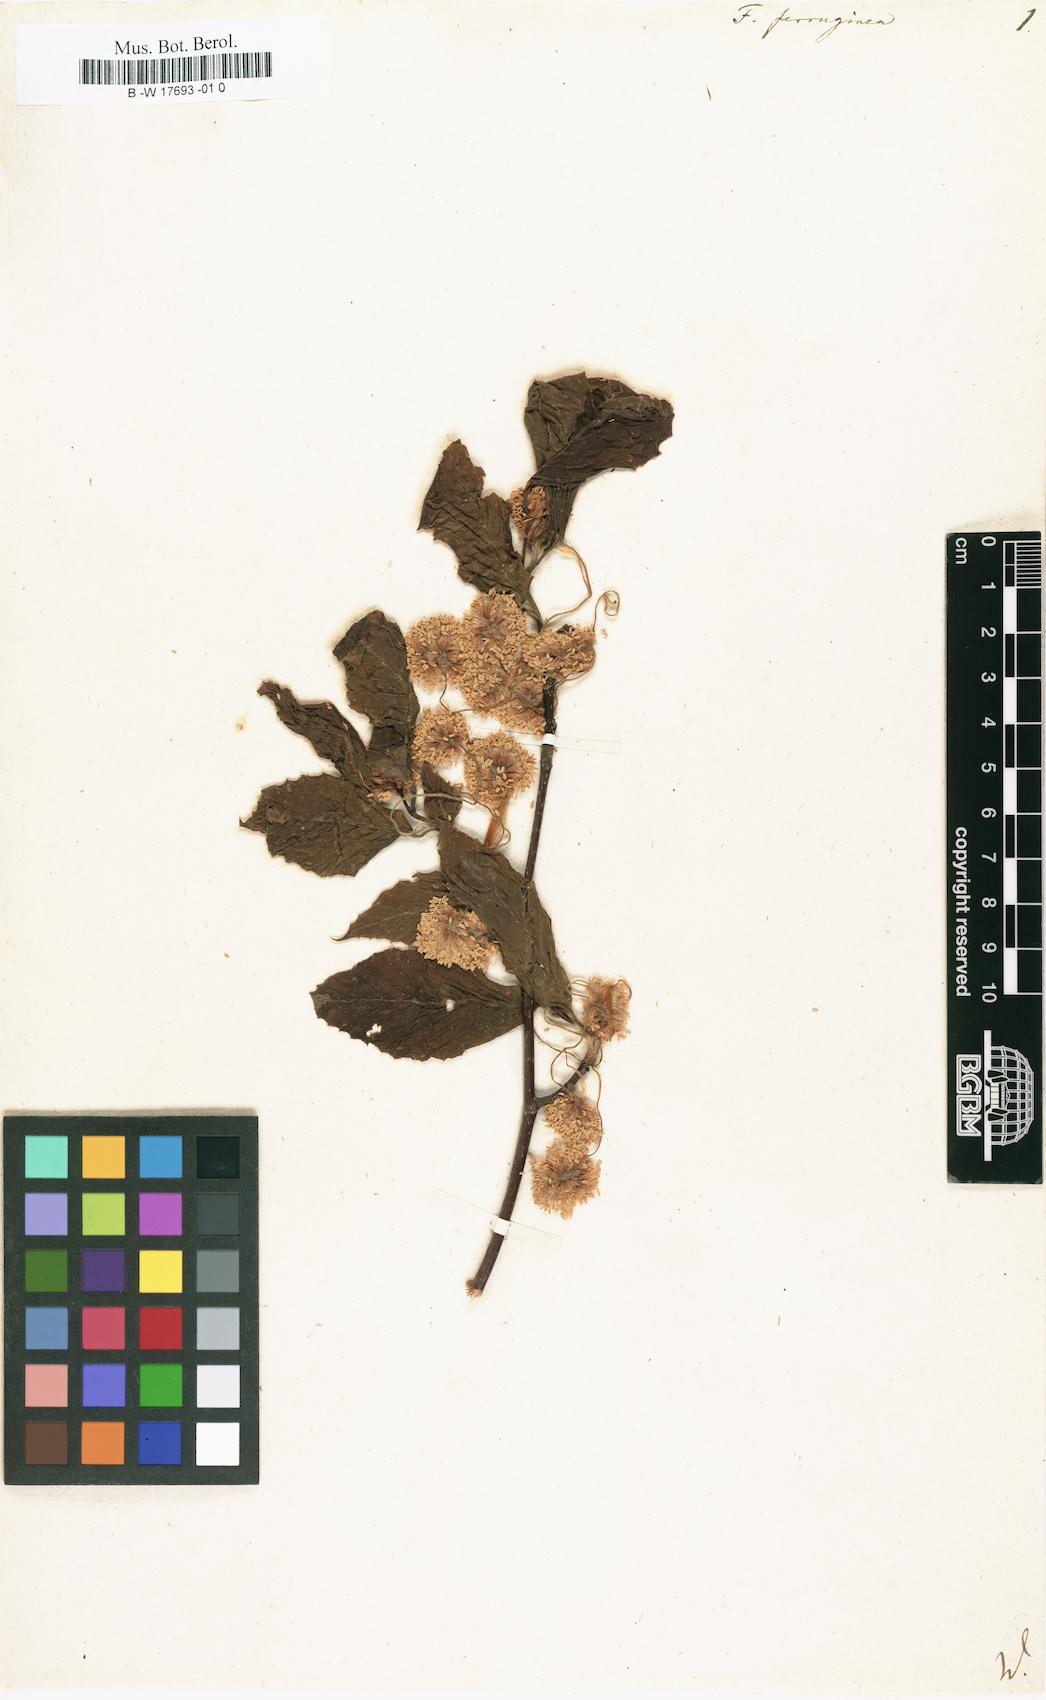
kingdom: Plantae
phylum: Tracheophyta
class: Magnoliopsida
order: Fagales
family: Fagaceae
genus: Fagus
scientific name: Fagus grandifolia
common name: American beech
